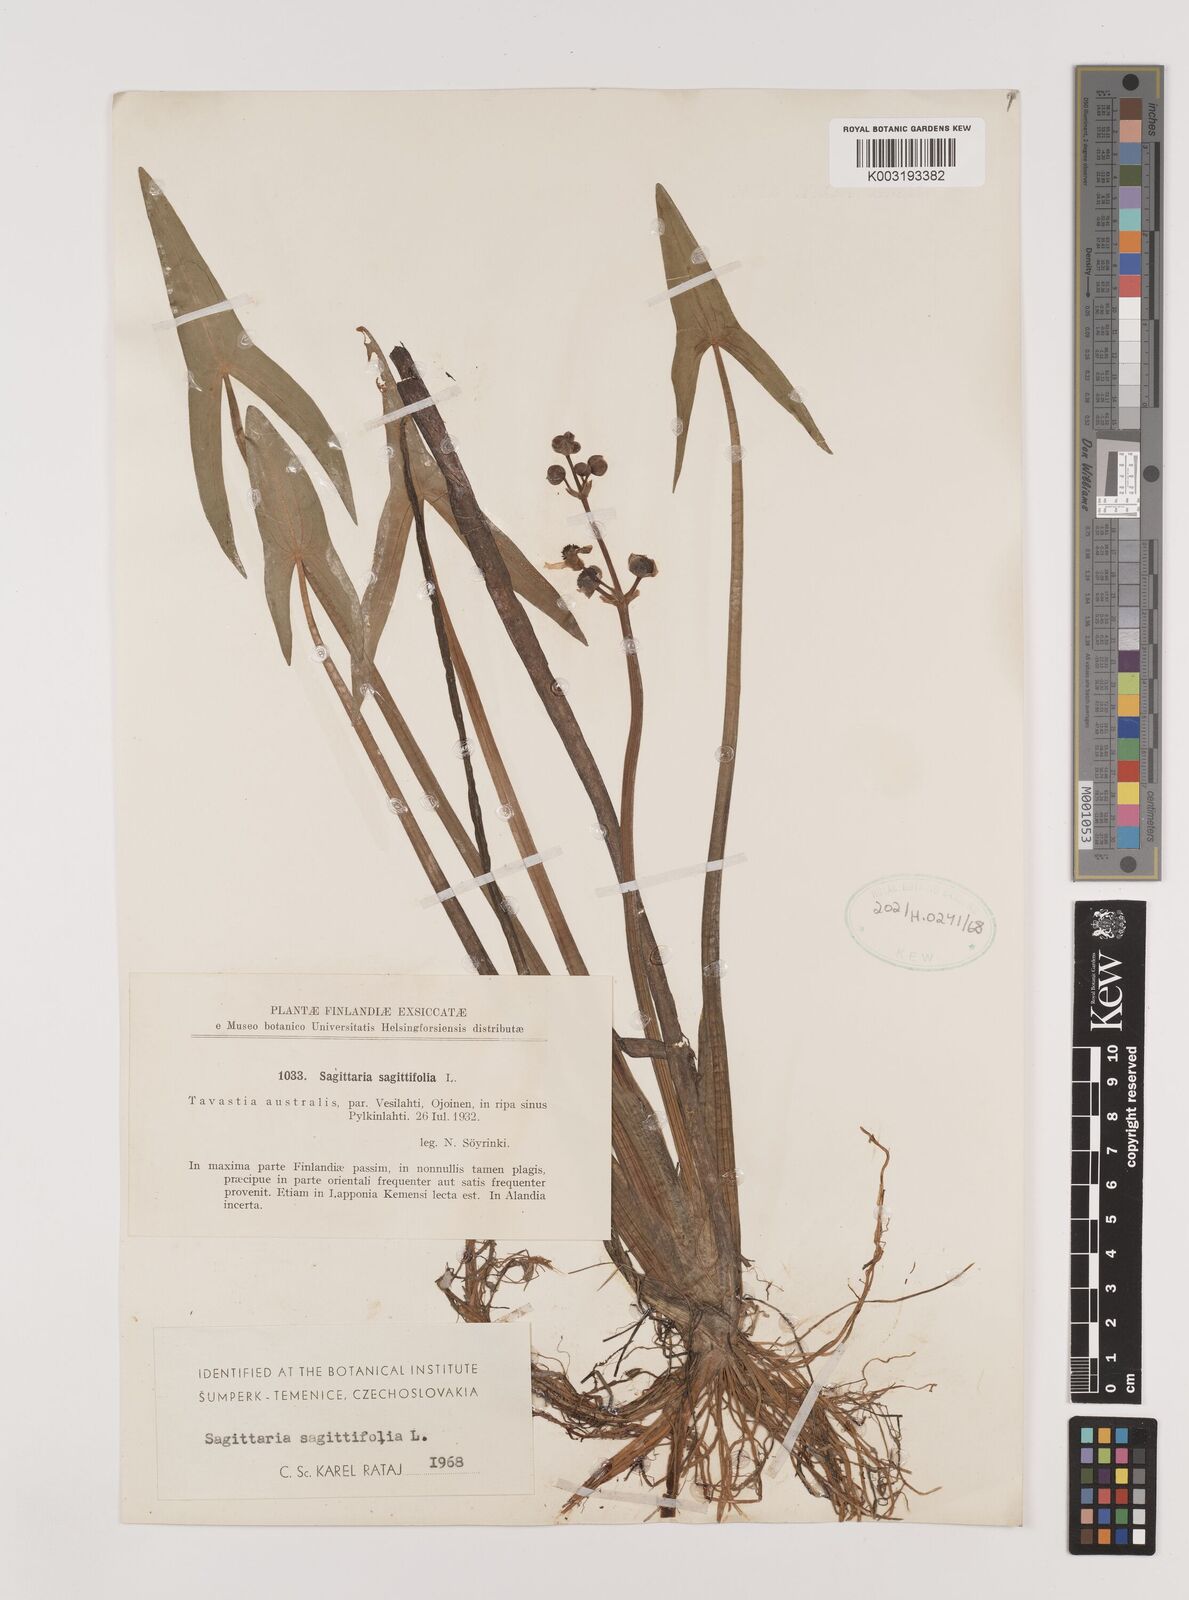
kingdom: Plantae
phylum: Tracheophyta
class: Liliopsida
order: Alismatales
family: Alismataceae
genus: Sagittaria
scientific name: Sagittaria sagittifolia
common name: Arrowhead
